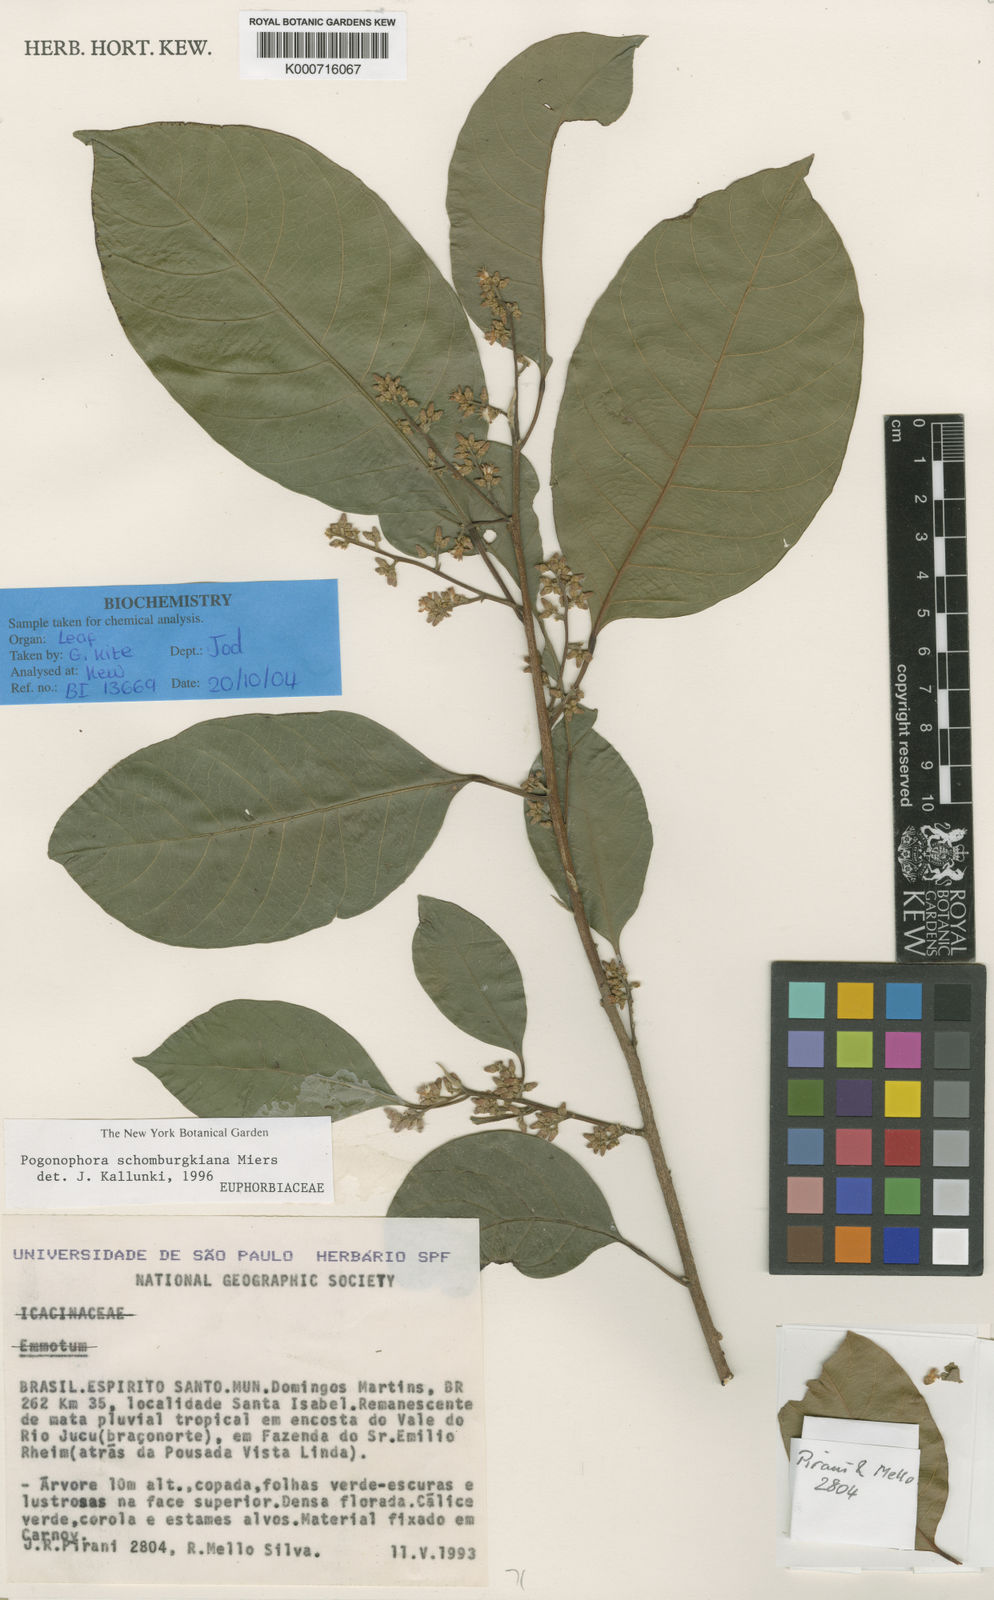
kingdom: Plantae
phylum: Tracheophyta
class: Magnoliopsida
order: Malpighiales
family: Peraceae
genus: Pogonophora
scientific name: Pogonophora schomburgkiana
